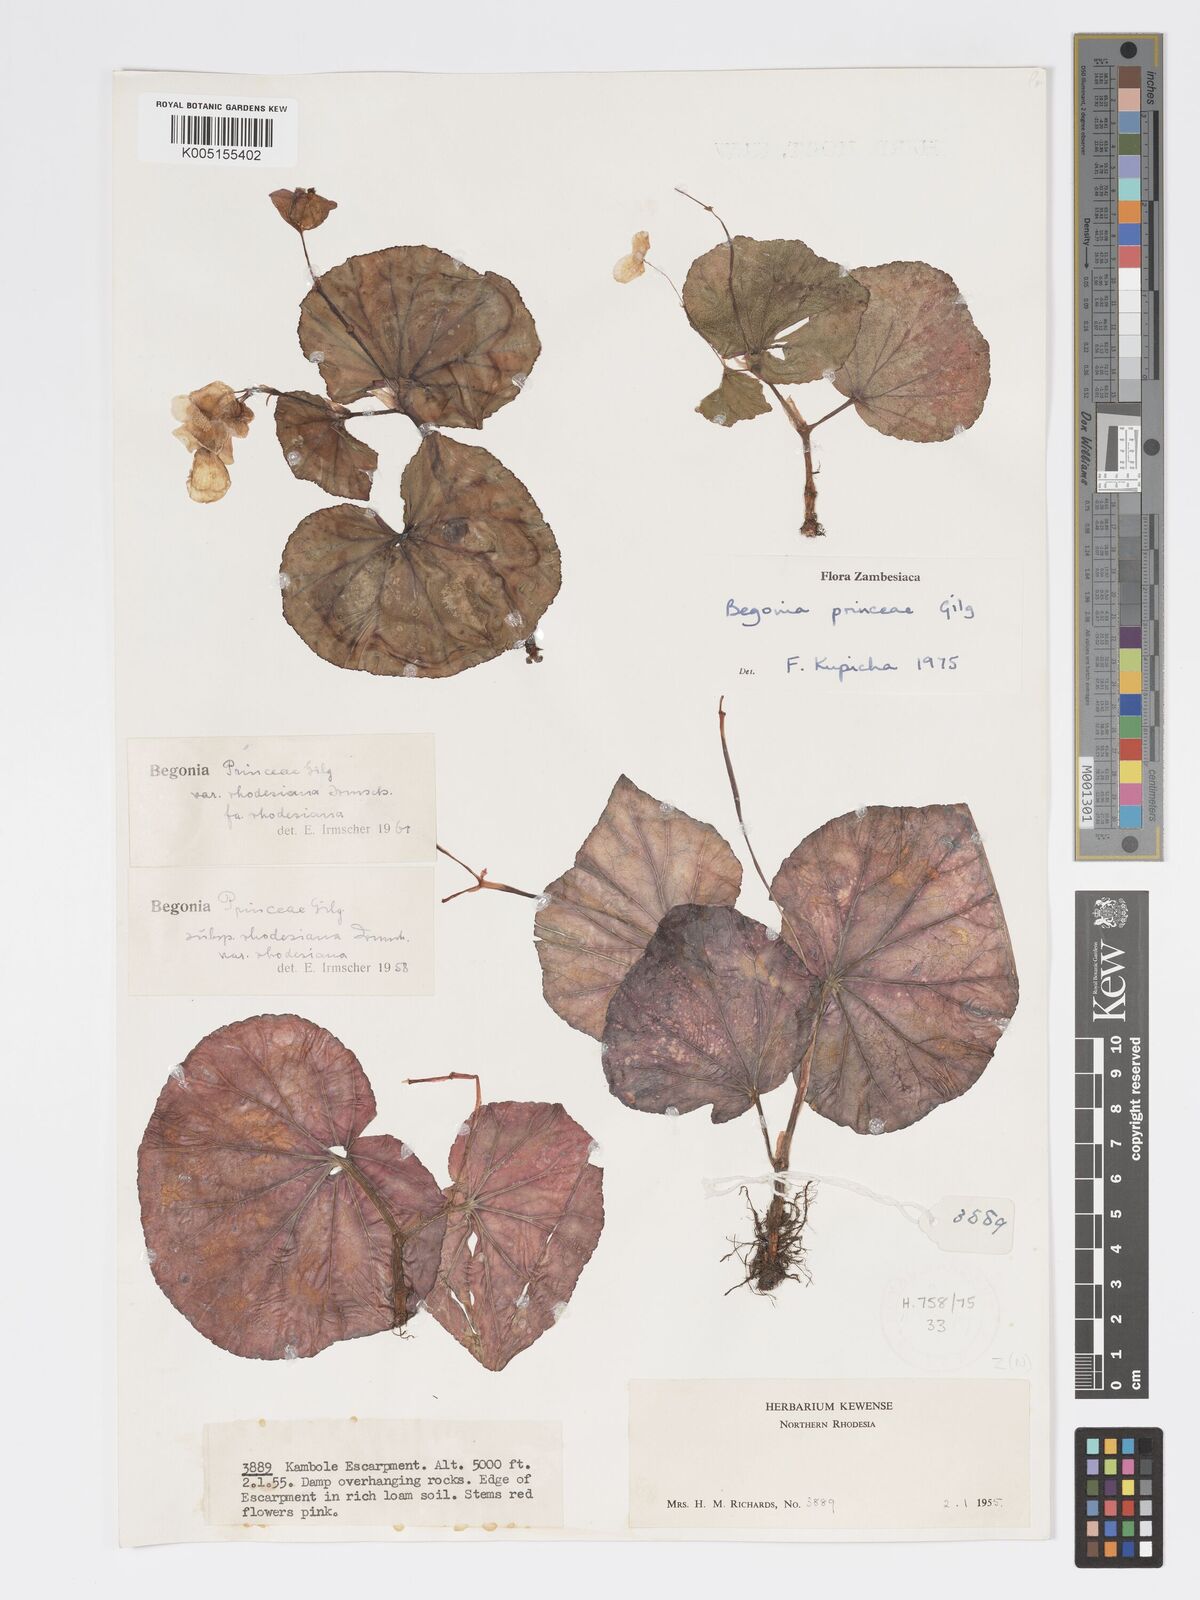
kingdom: Plantae
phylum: Tracheophyta
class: Magnoliopsida
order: Cucurbitales
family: Begoniaceae
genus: Begonia
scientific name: Begonia princeae
